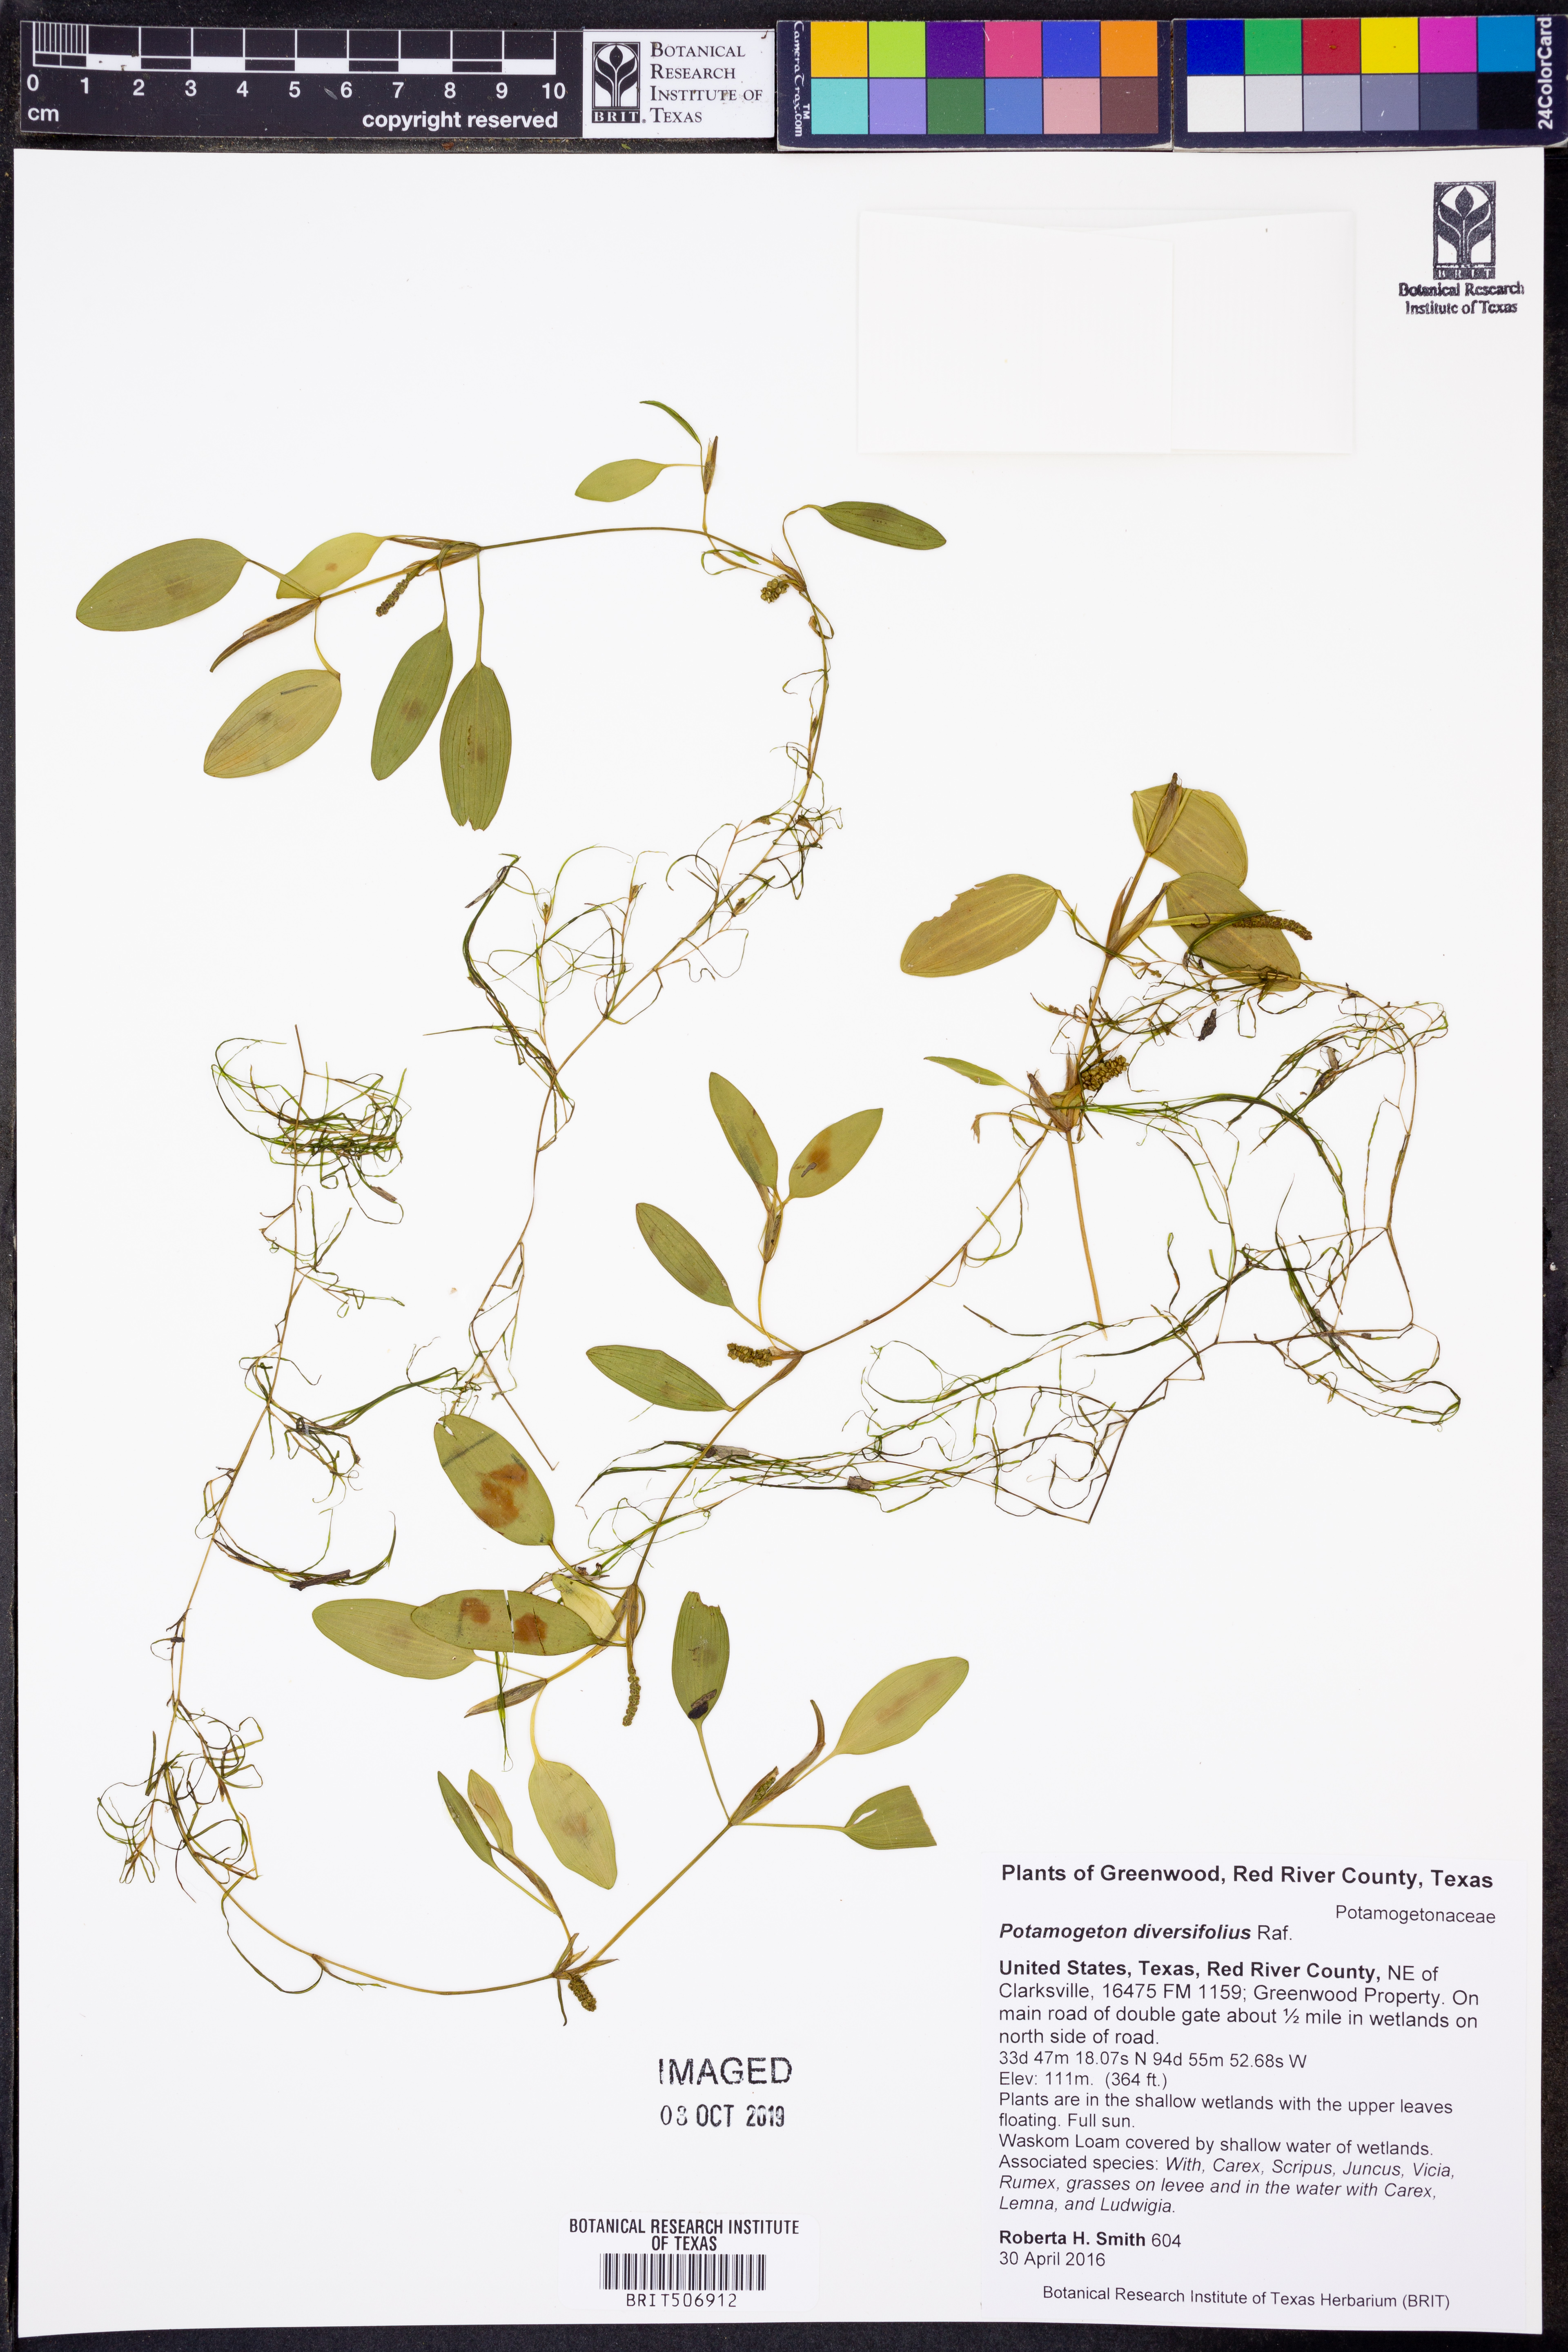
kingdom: Plantae
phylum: Tracheophyta
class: Liliopsida
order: Alismatales
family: Potamogetonaceae
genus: Potamogeton
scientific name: Potamogeton diversifolius
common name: Water-thread pondweed
